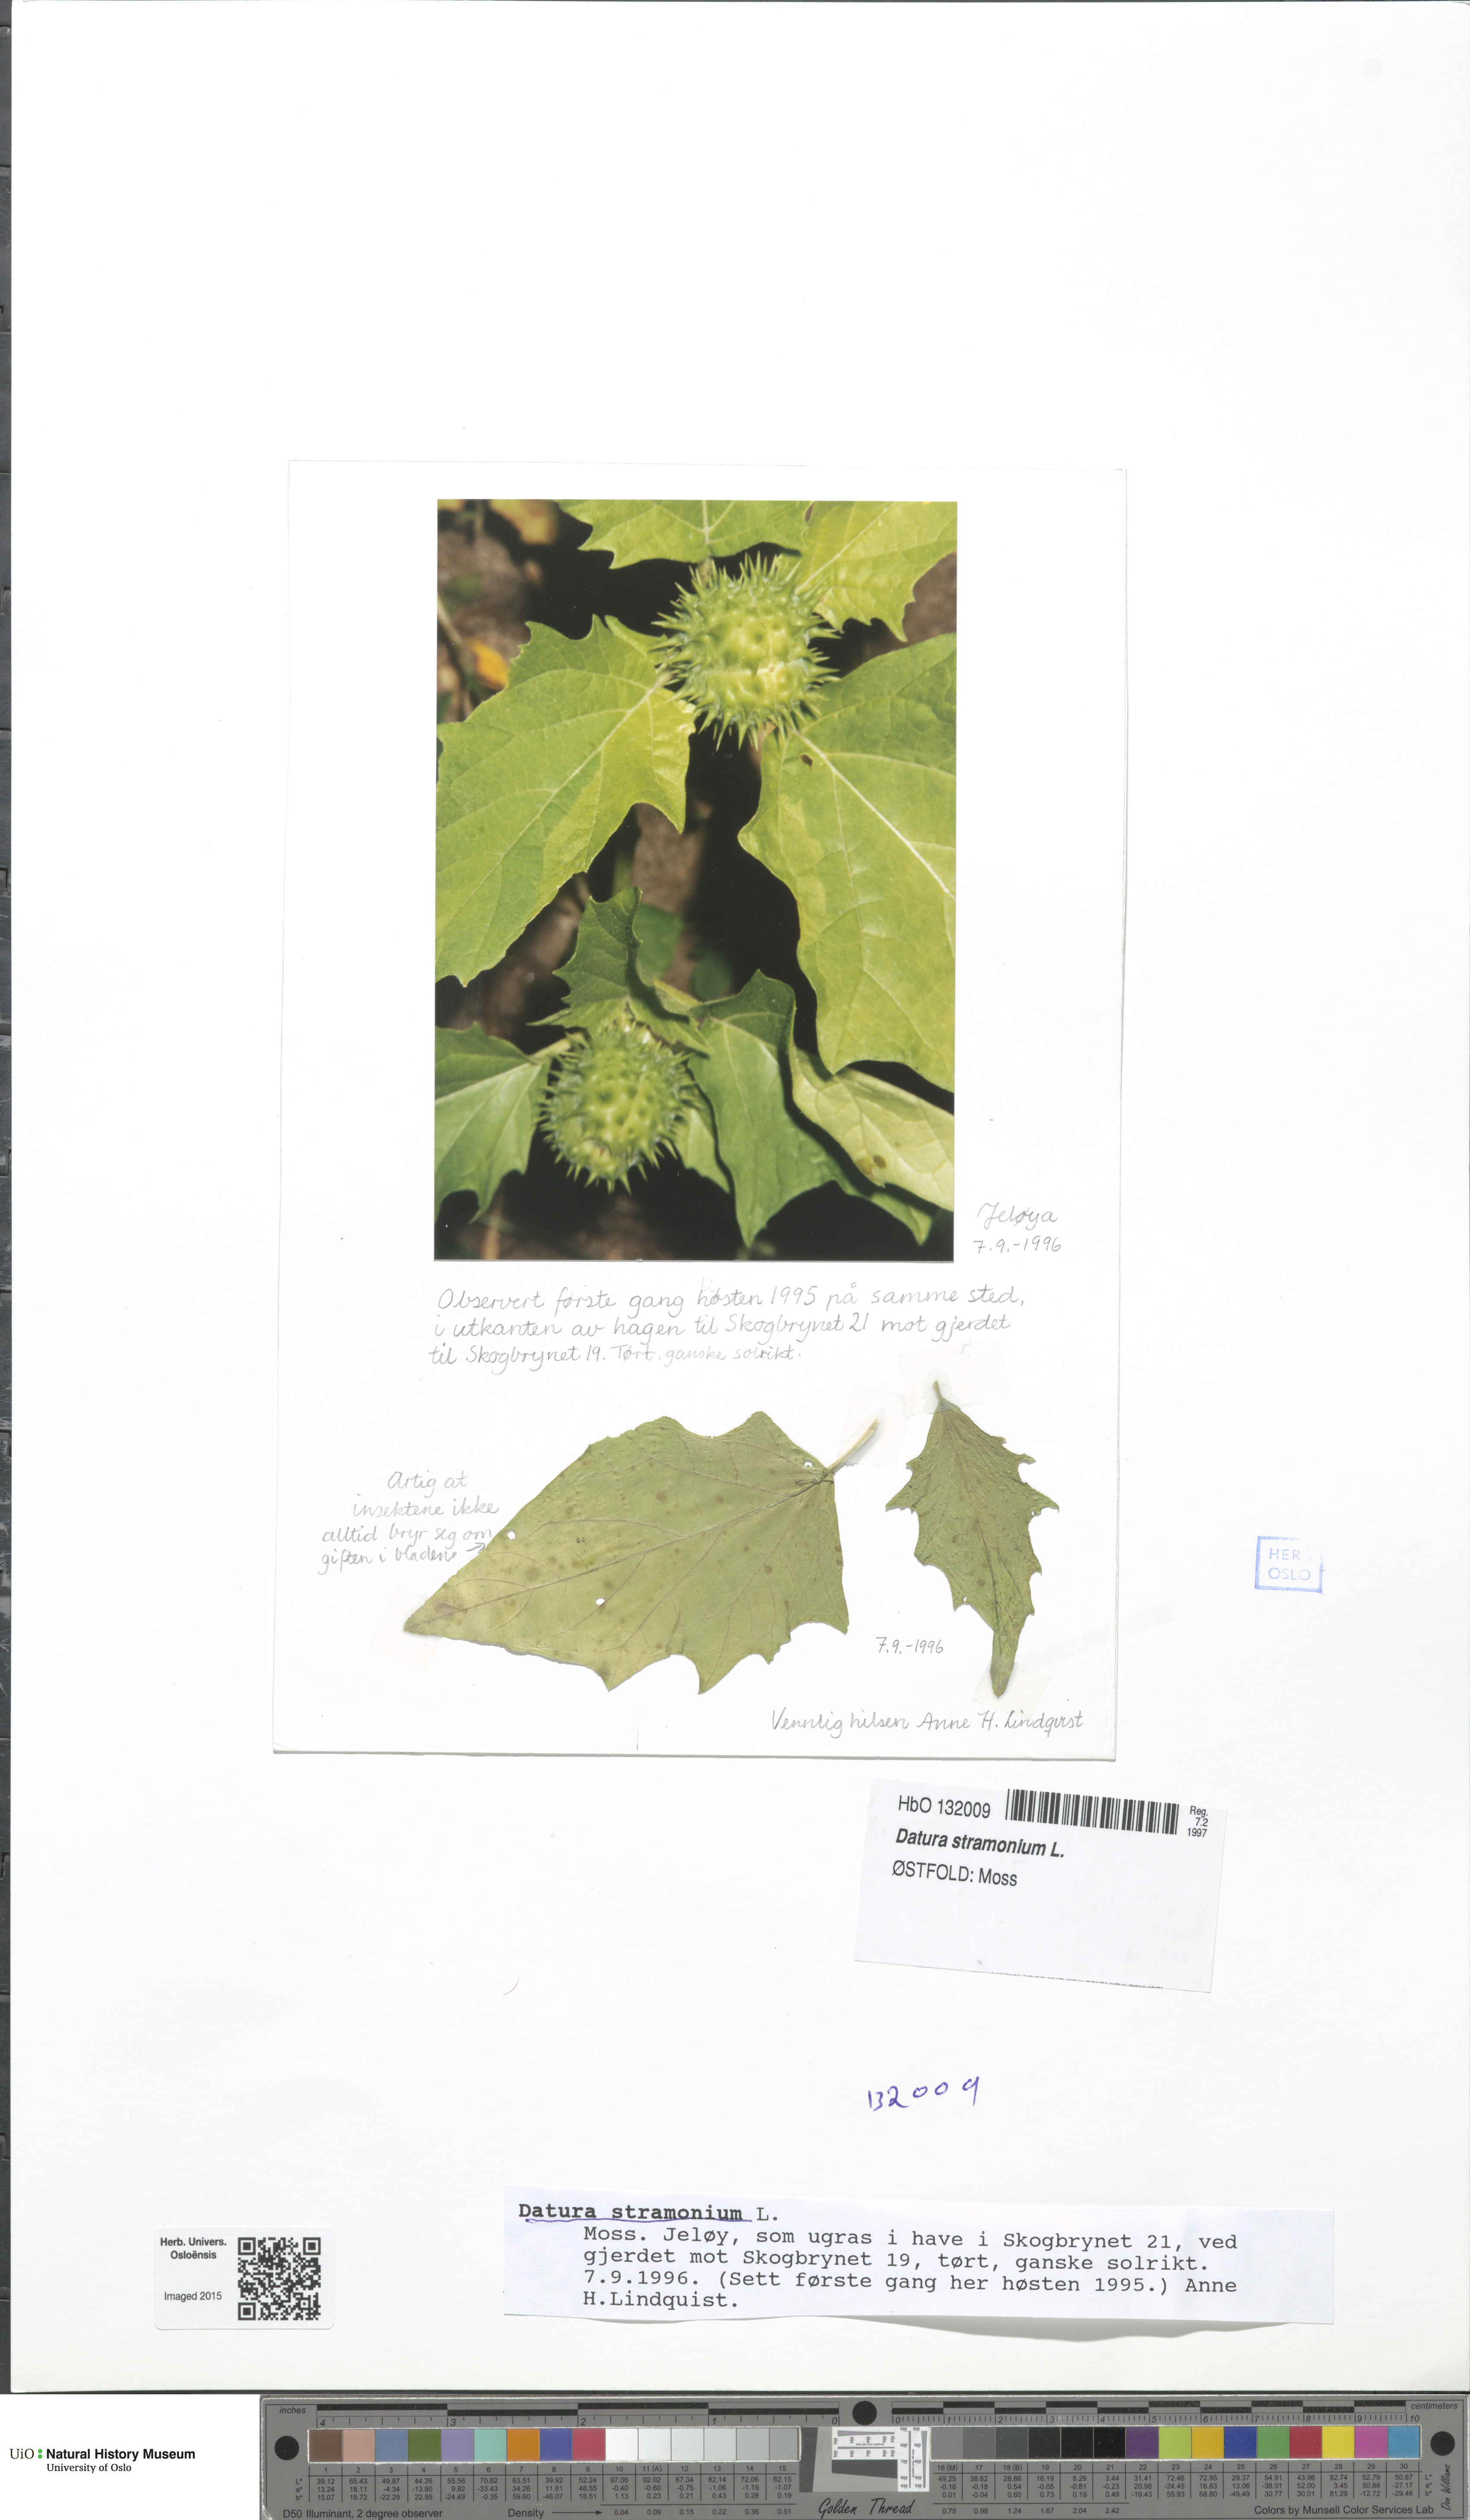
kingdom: Plantae
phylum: Tracheophyta
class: Magnoliopsida
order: Solanales
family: Solanaceae
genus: Datura
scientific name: Datura stramonium
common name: Thorn-apple
